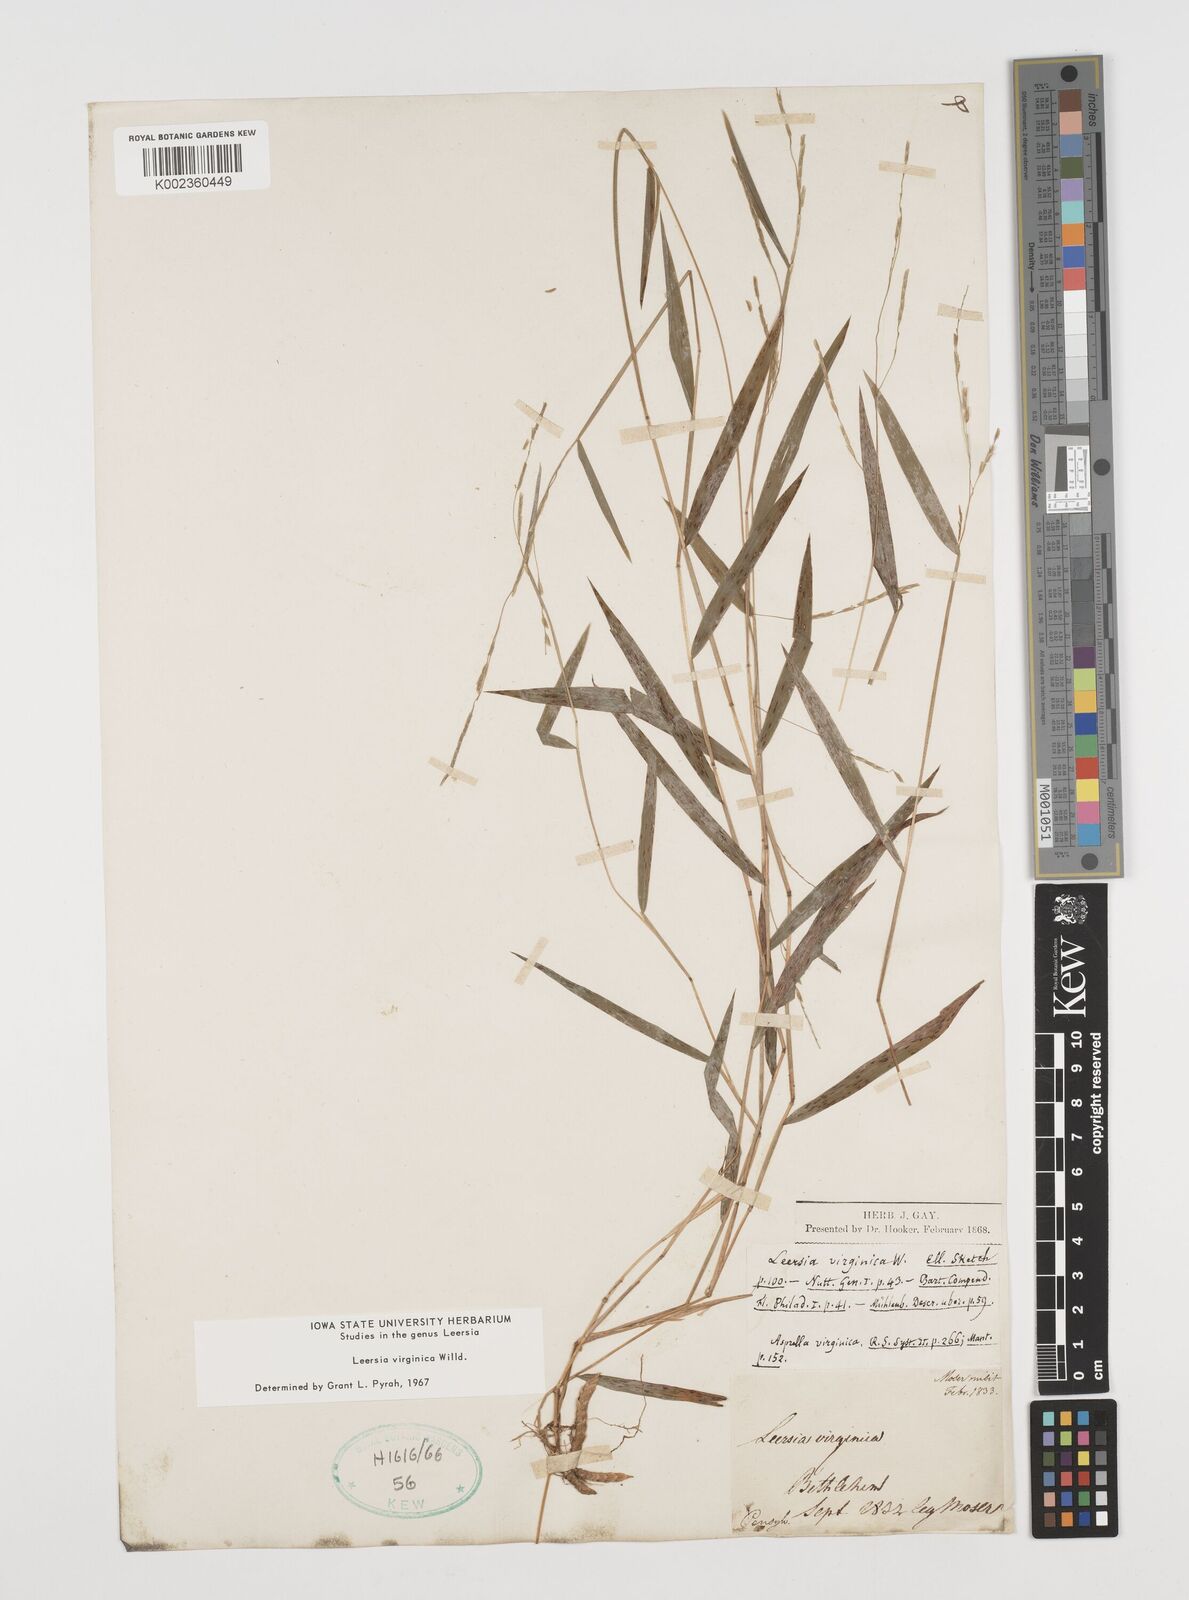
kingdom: Plantae
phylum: Tracheophyta
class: Liliopsida
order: Poales
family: Poaceae
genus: Leersia
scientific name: Leersia virginica
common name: White cutgrass
